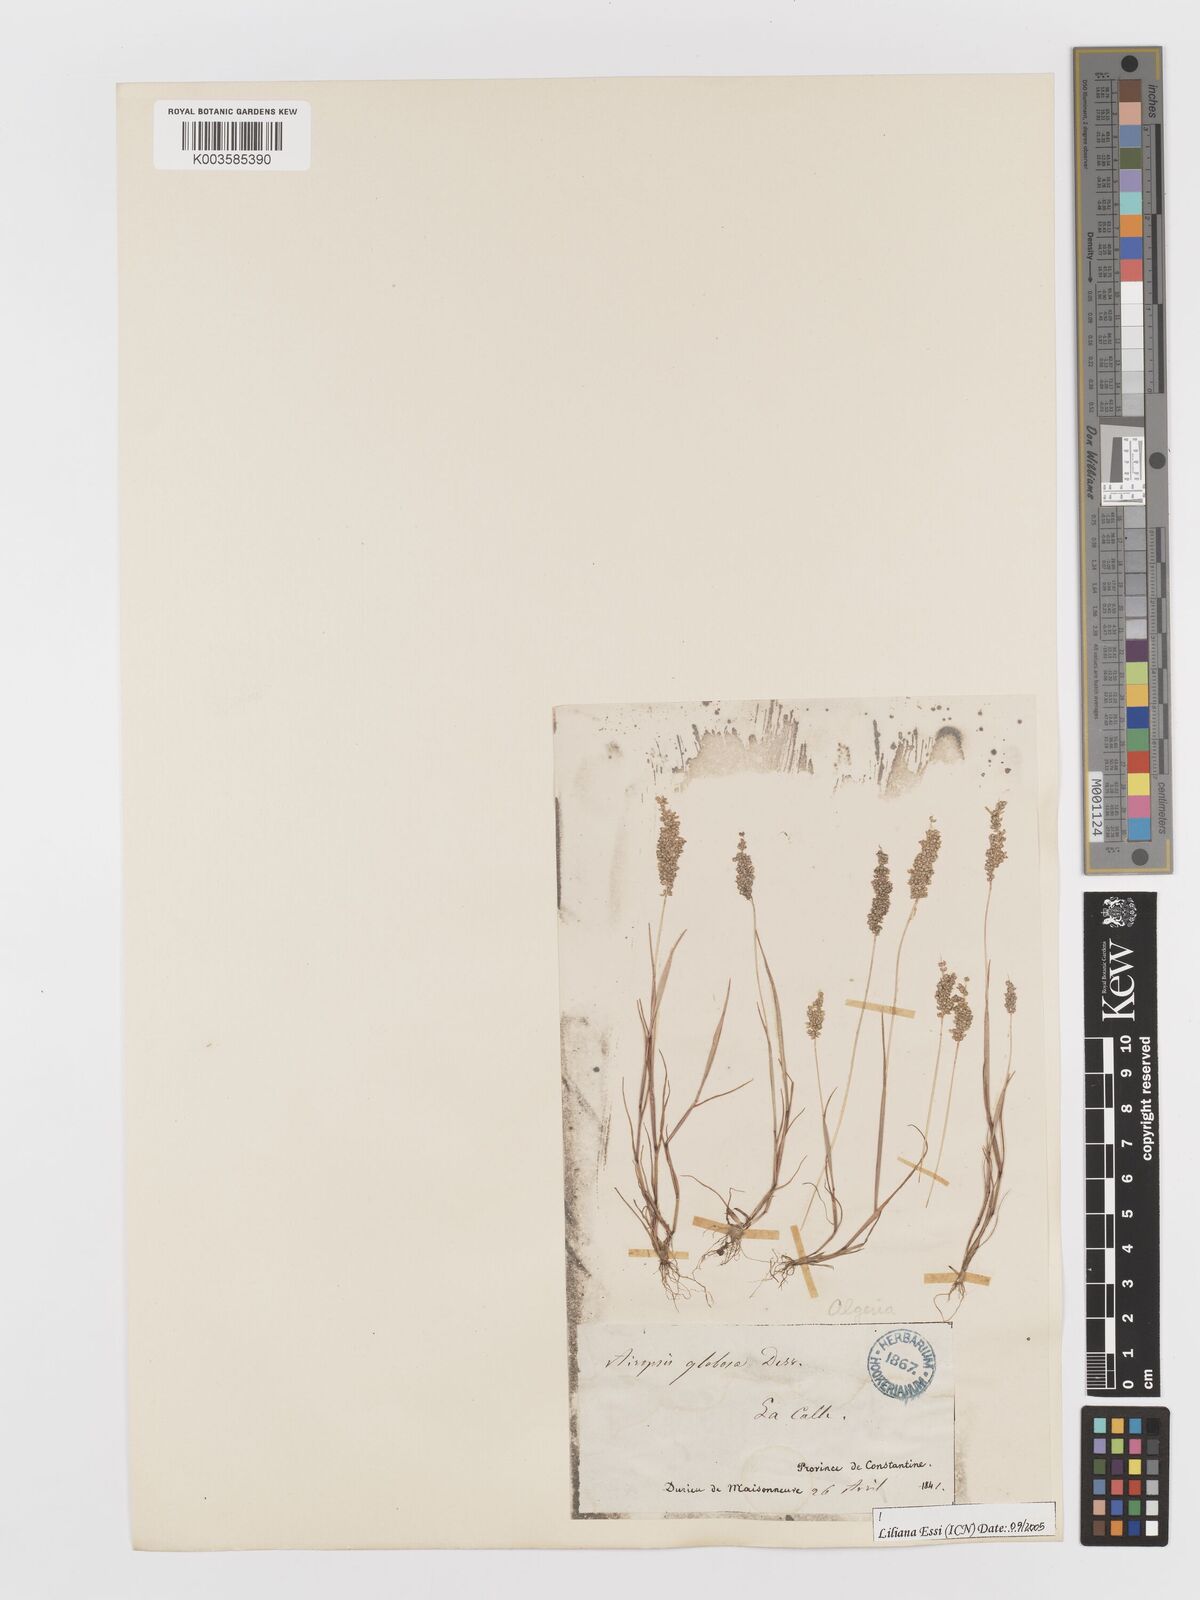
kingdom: Plantae
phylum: Tracheophyta
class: Liliopsida
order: Poales
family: Poaceae
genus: Airopsis
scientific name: Airopsis tenella
